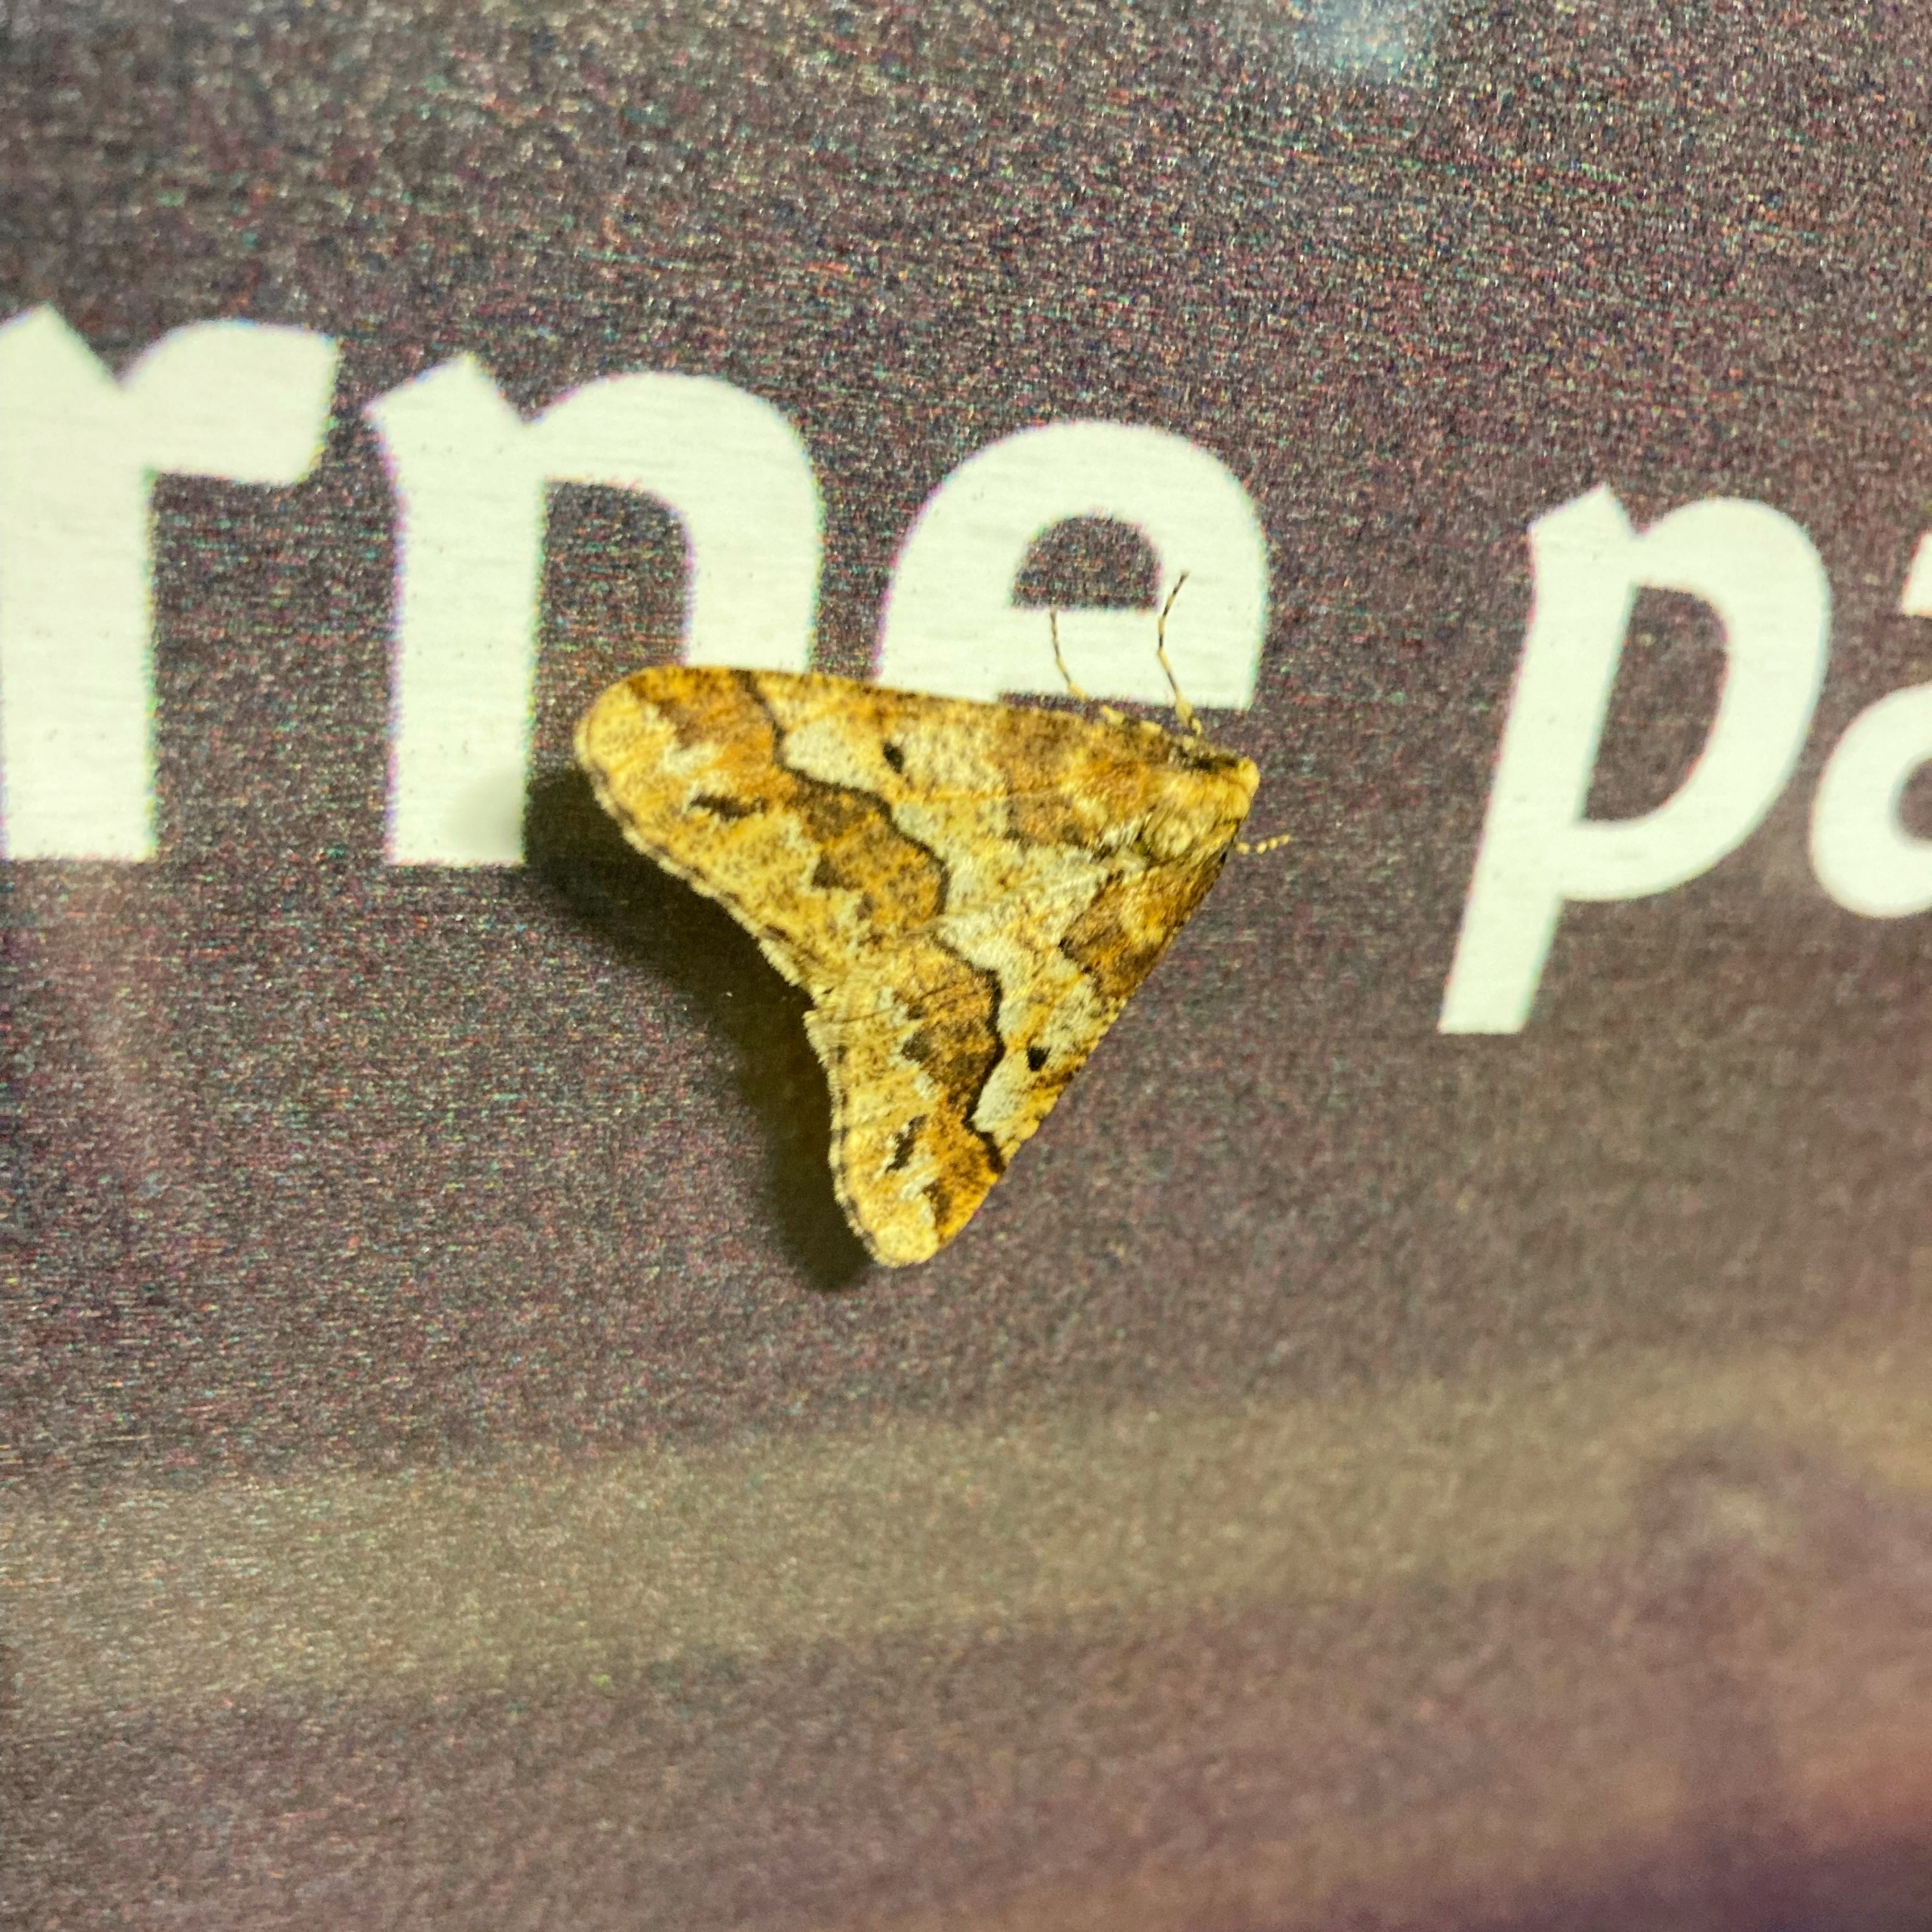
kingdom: Animalia
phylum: Arthropoda
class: Insecta
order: Lepidoptera
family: Geometridae
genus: Erannis
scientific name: Erannis defoliaria
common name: Stor frostmåler
